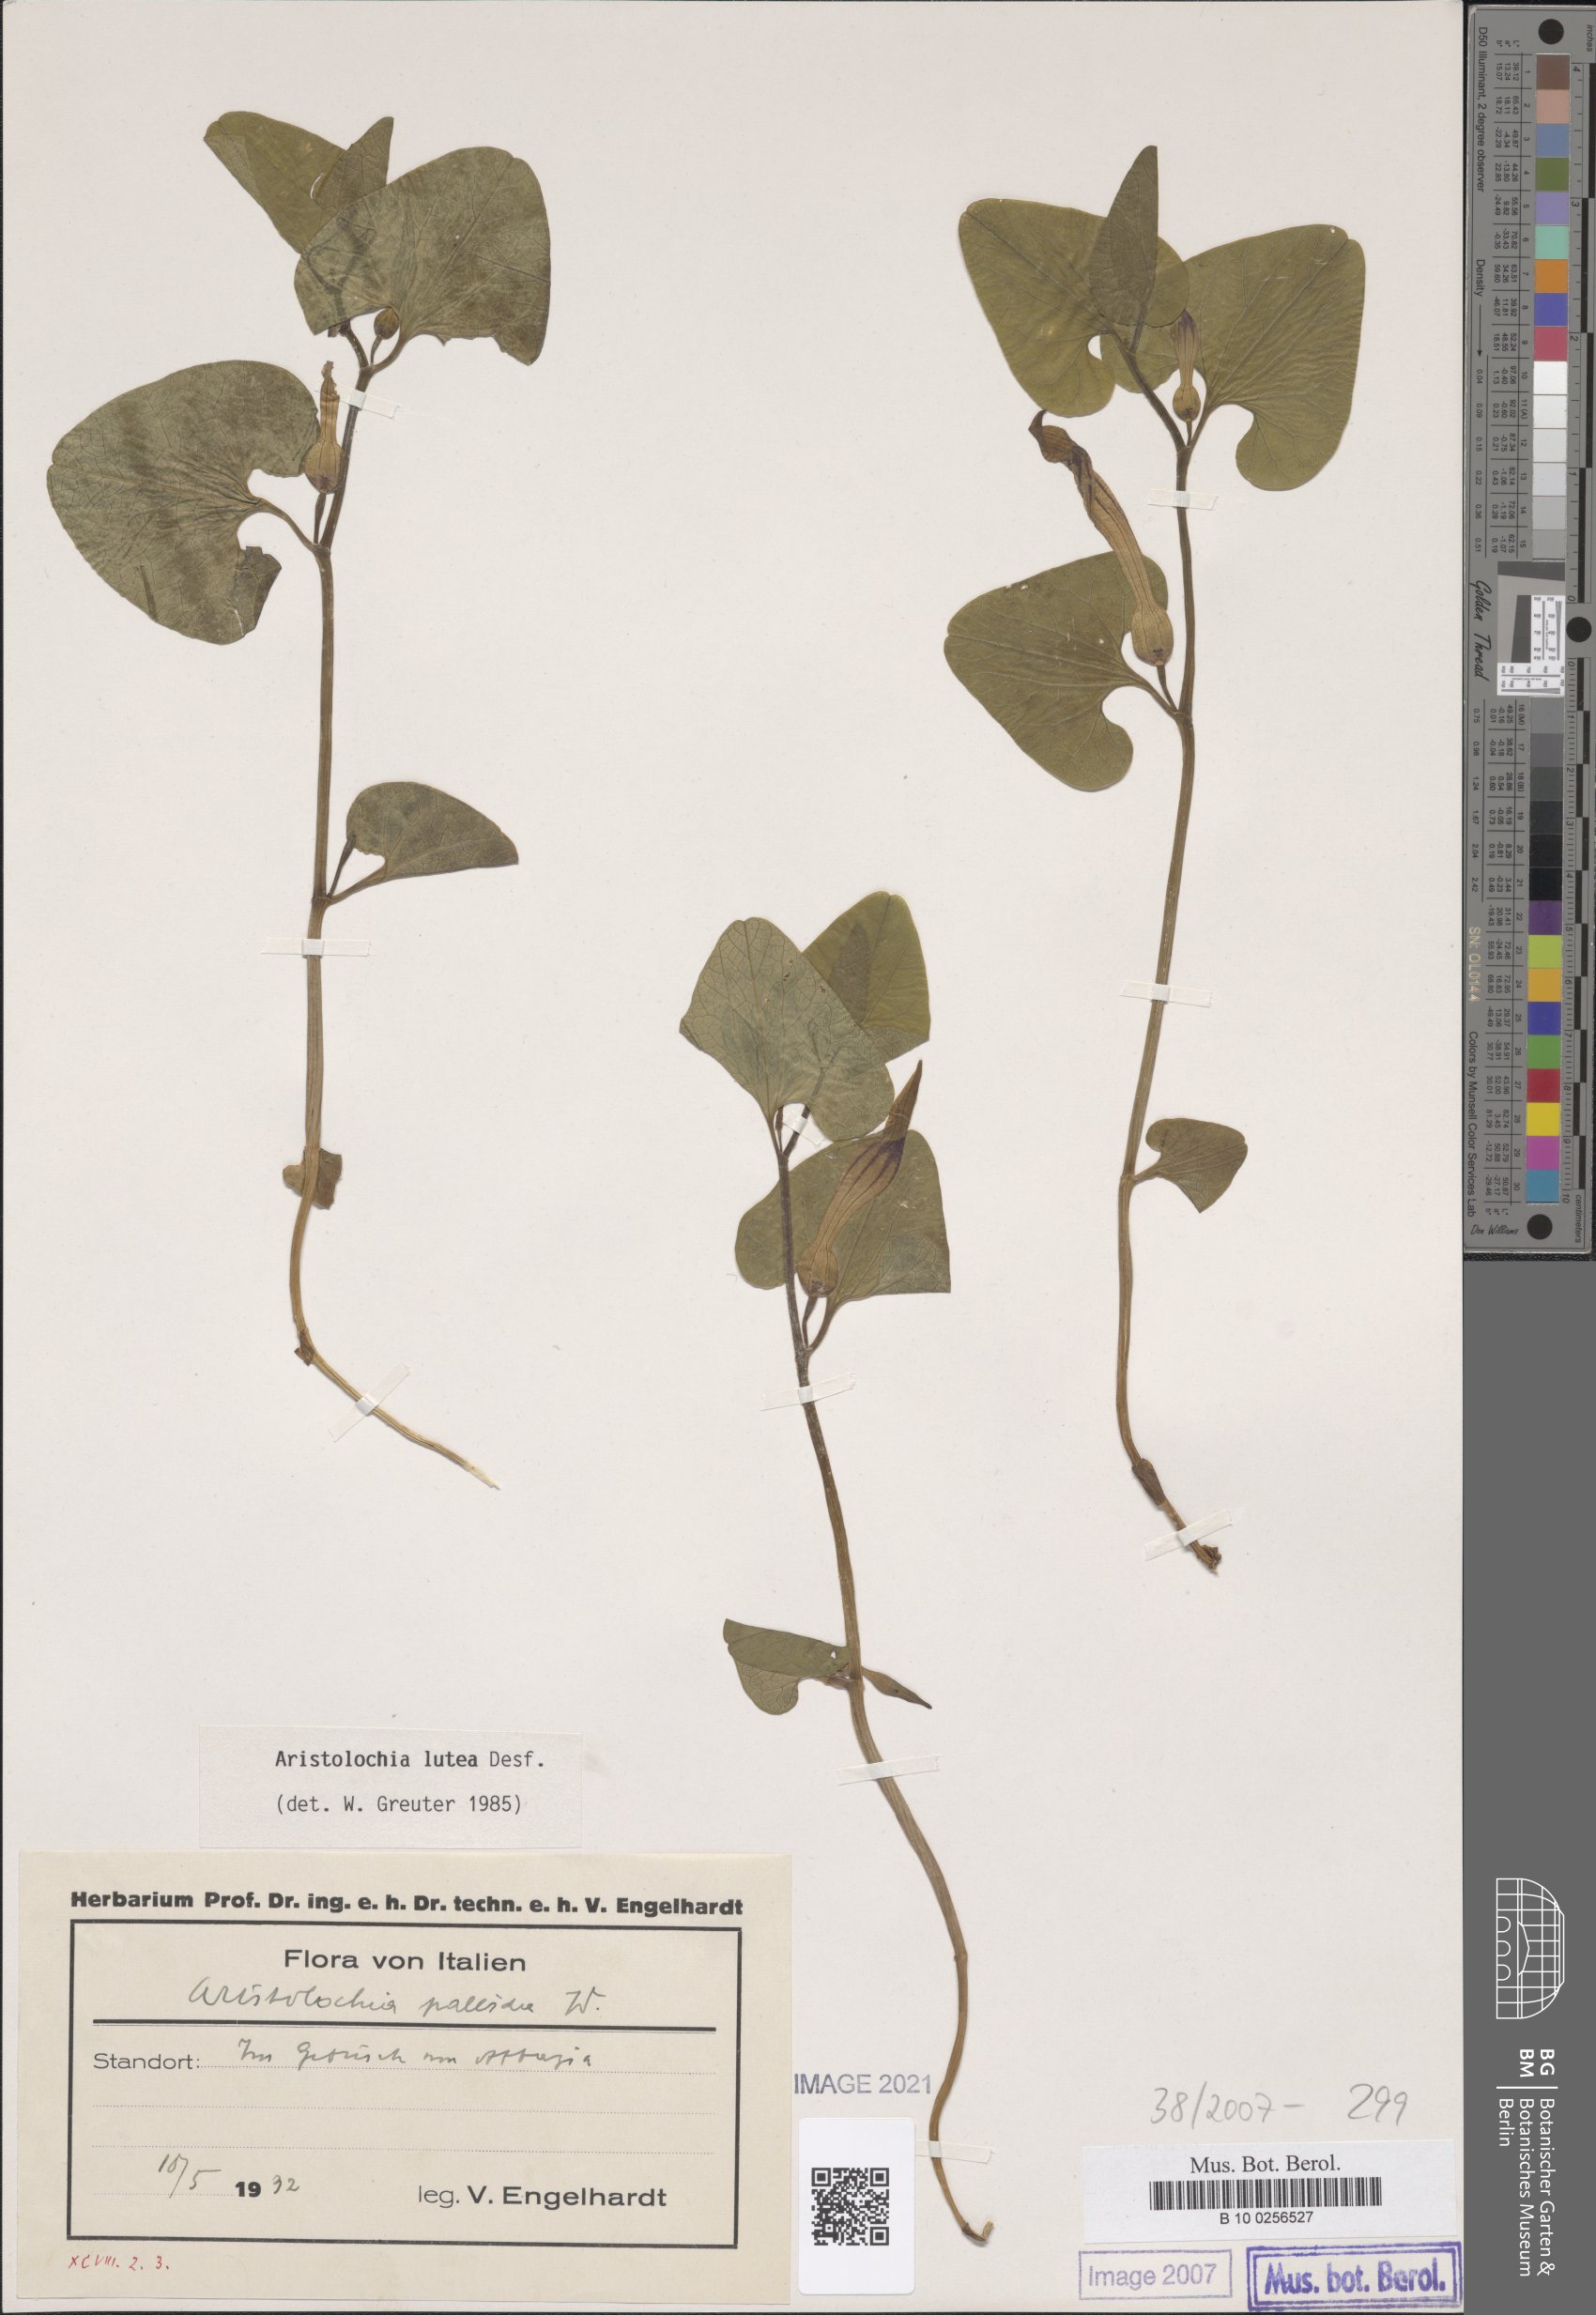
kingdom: Plantae
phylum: Tracheophyta
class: Magnoliopsida
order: Piperales
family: Aristolochiaceae
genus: Aristolochia
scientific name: Aristolochia lutea
